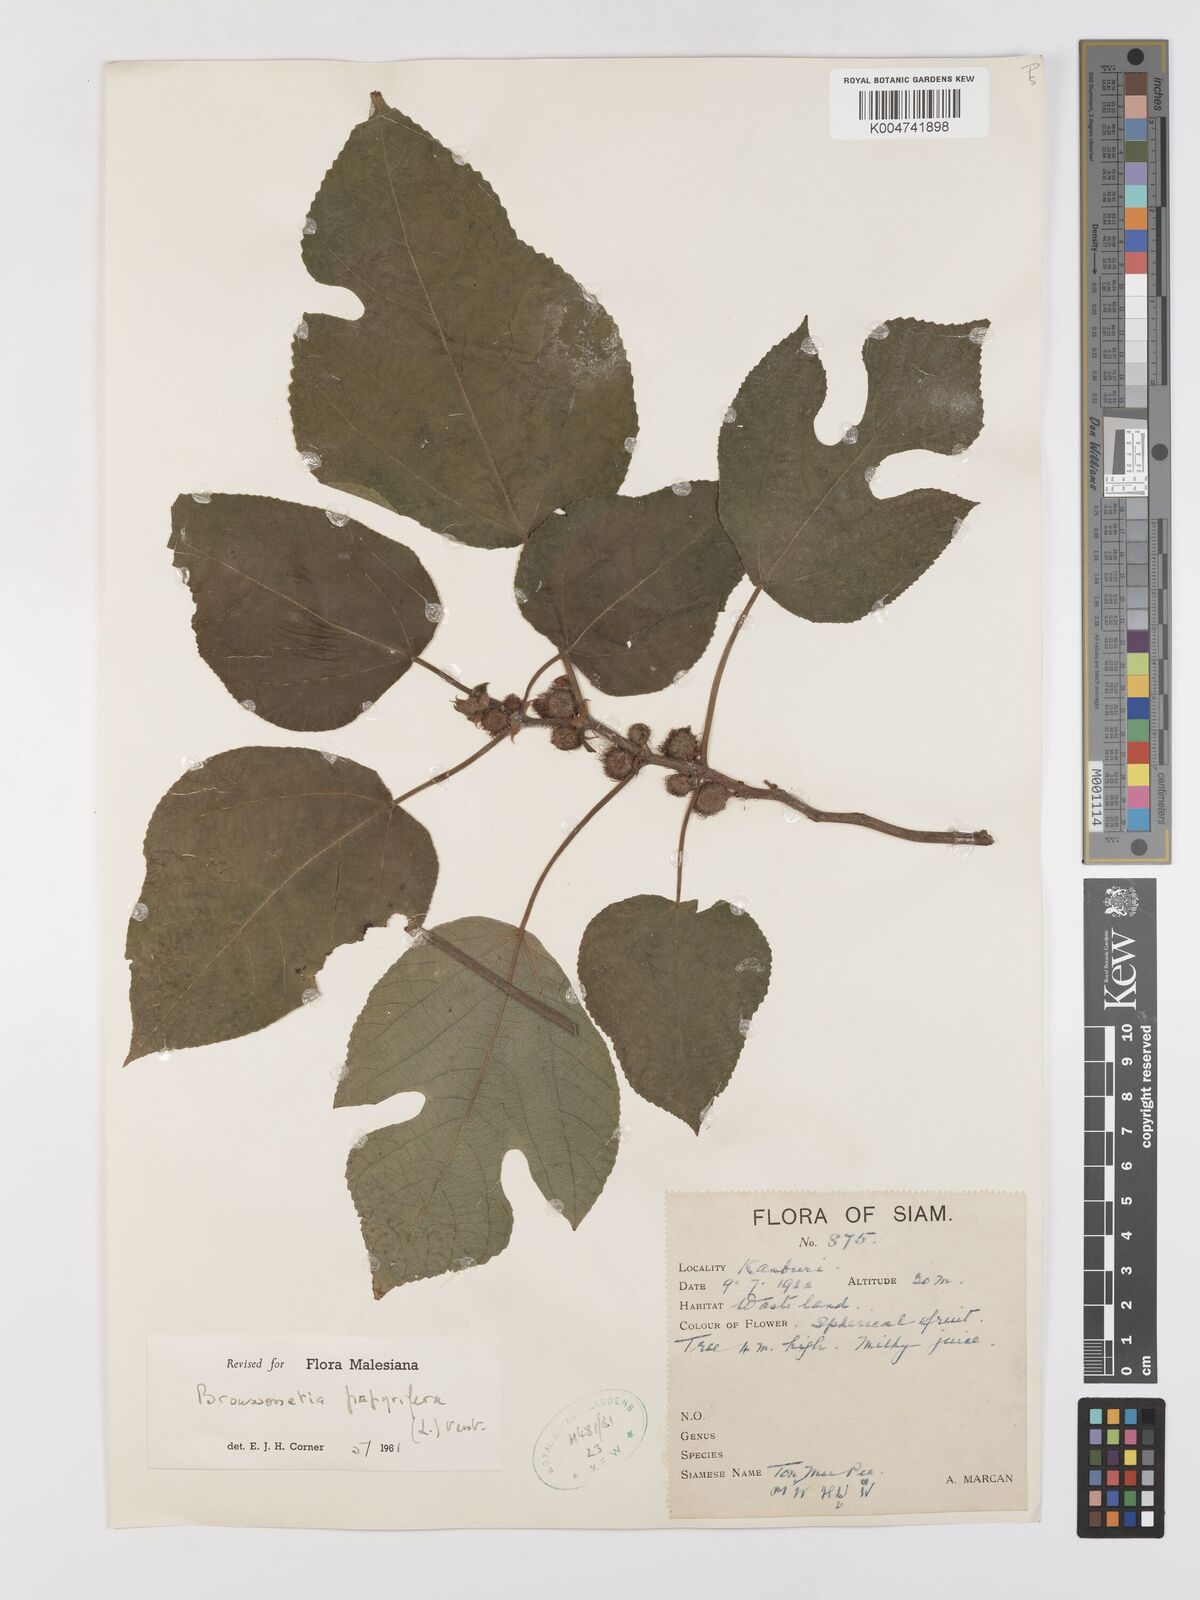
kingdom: Plantae
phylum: Tracheophyta
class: Magnoliopsida
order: Rosales
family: Moraceae
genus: Broussonetia
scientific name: Broussonetia papyrifera
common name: Paper mulberry
